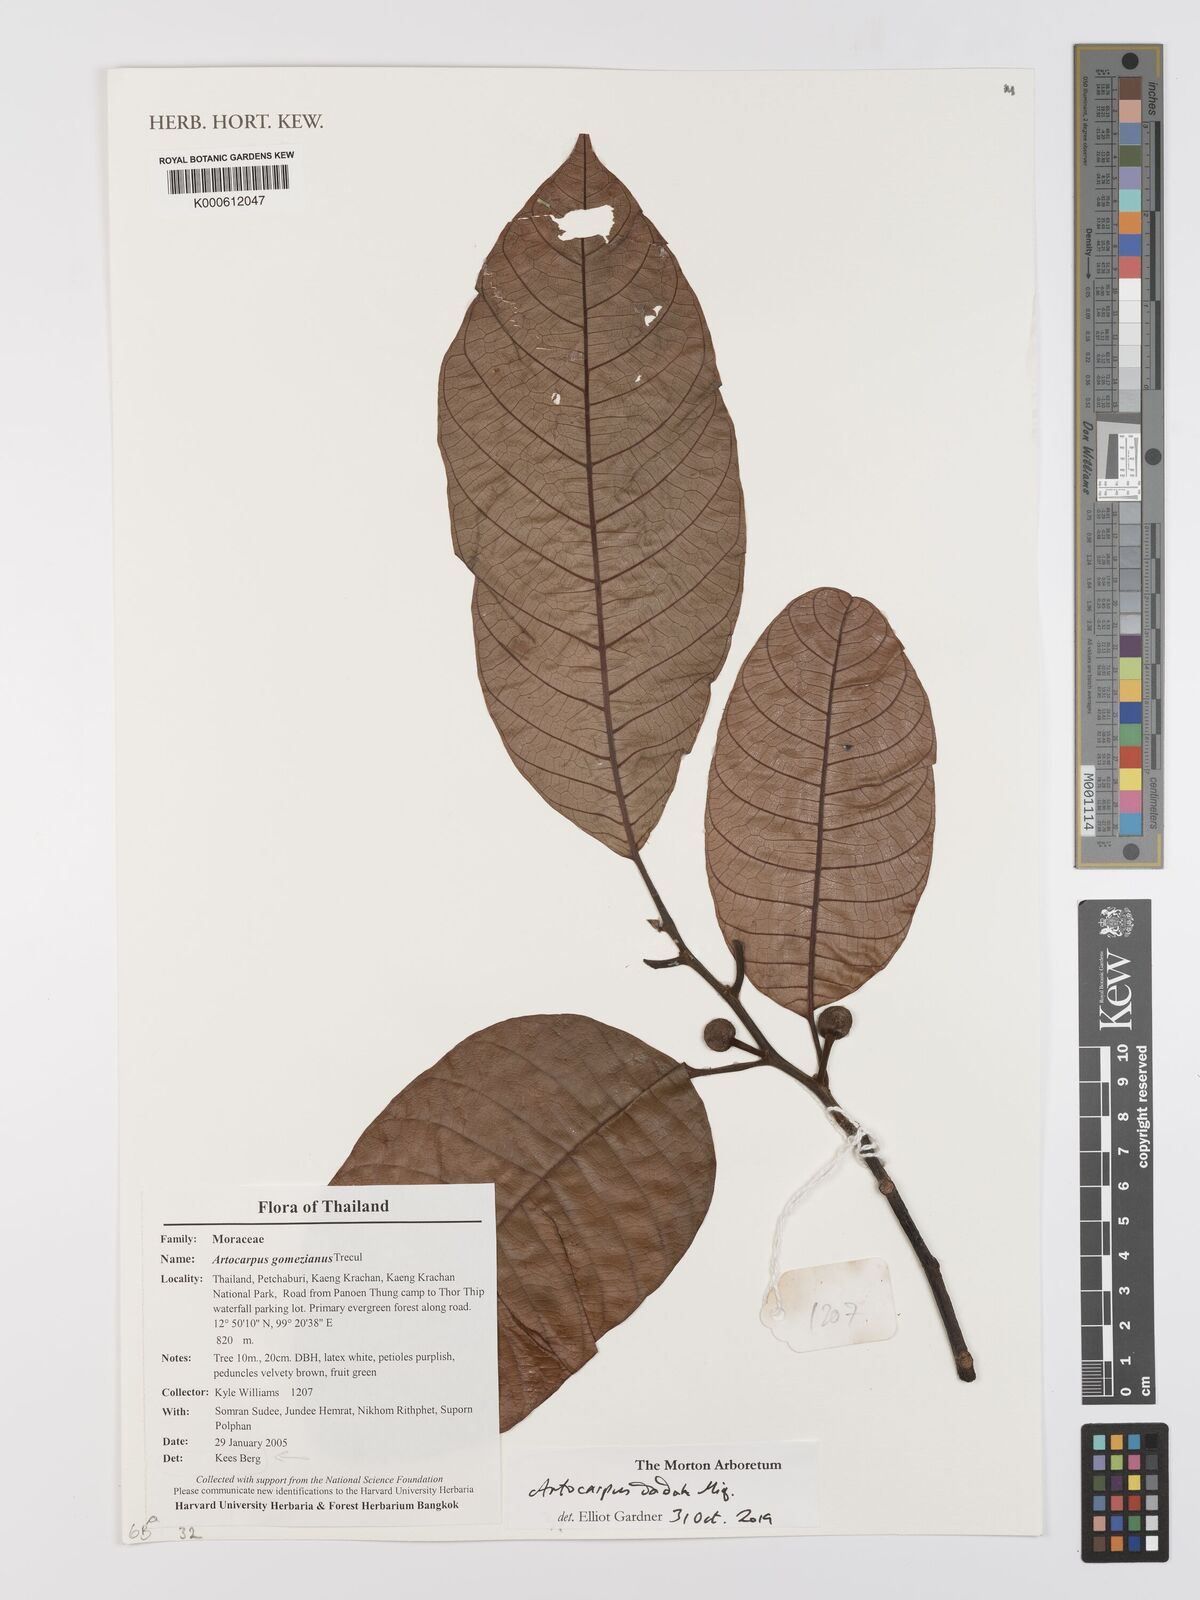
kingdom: Plantae
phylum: Tracheophyta
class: Magnoliopsida
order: Rosales
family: Moraceae
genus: Artocarpus
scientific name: Artocarpus
